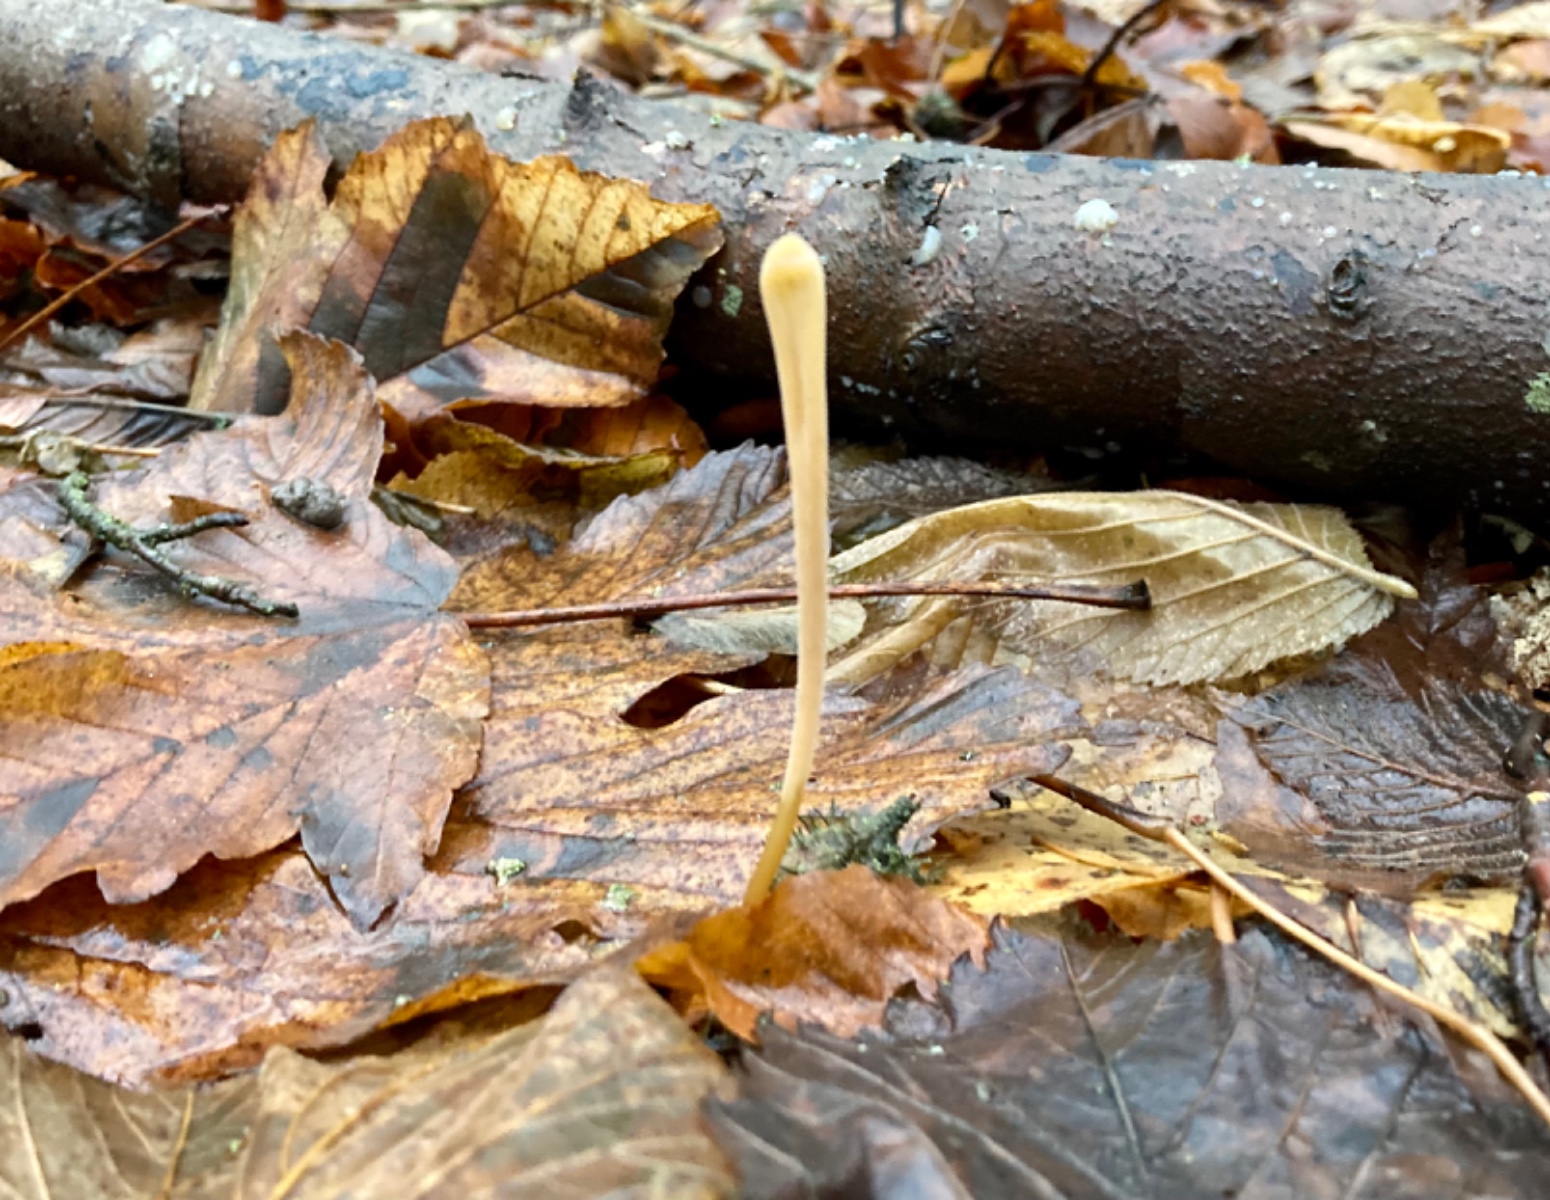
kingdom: Fungi
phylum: Basidiomycota
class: Agaricomycetes
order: Agaricales
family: Typhulaceae
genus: Typhula
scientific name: Typhula fistulosa
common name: pibet rørkølle
